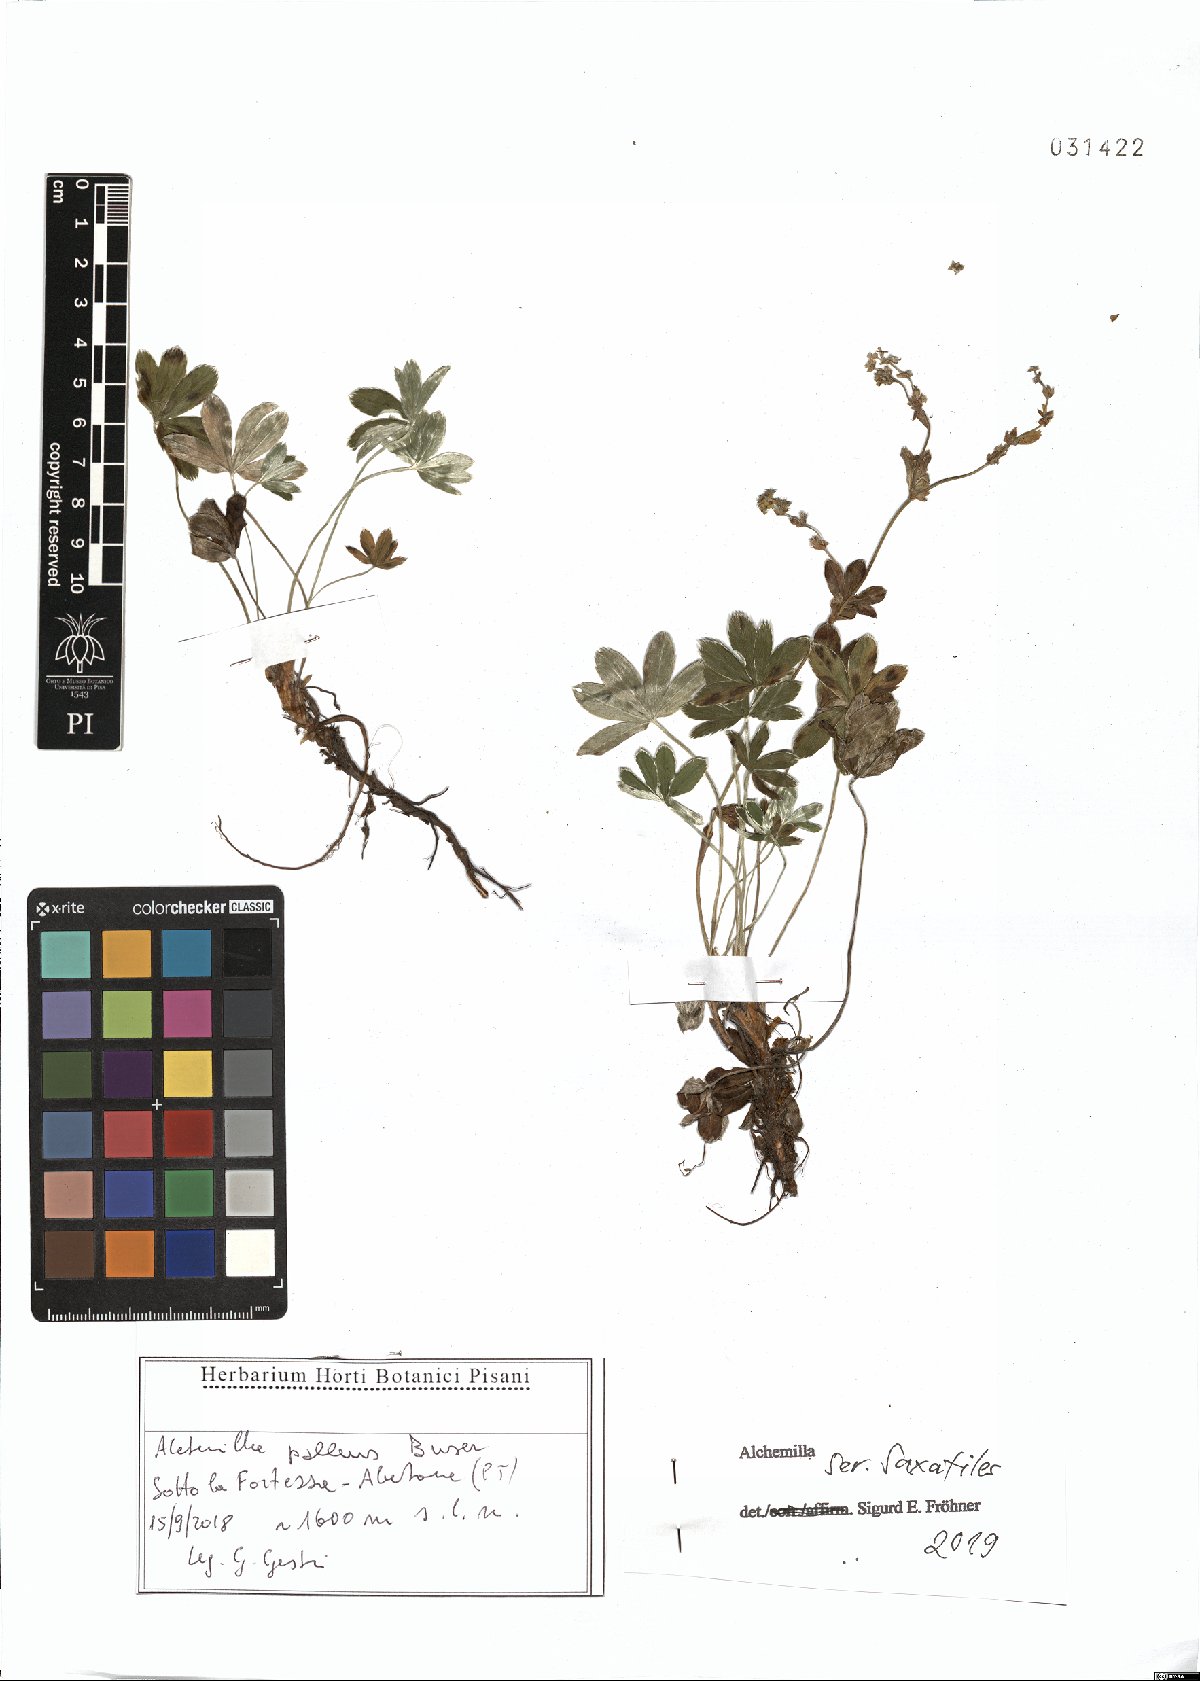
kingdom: Plantae
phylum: Tracheophyta
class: Magnoliopsida
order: Rosales
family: Rosaceae
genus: Alchemilla
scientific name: Alchemilla saxatilis
